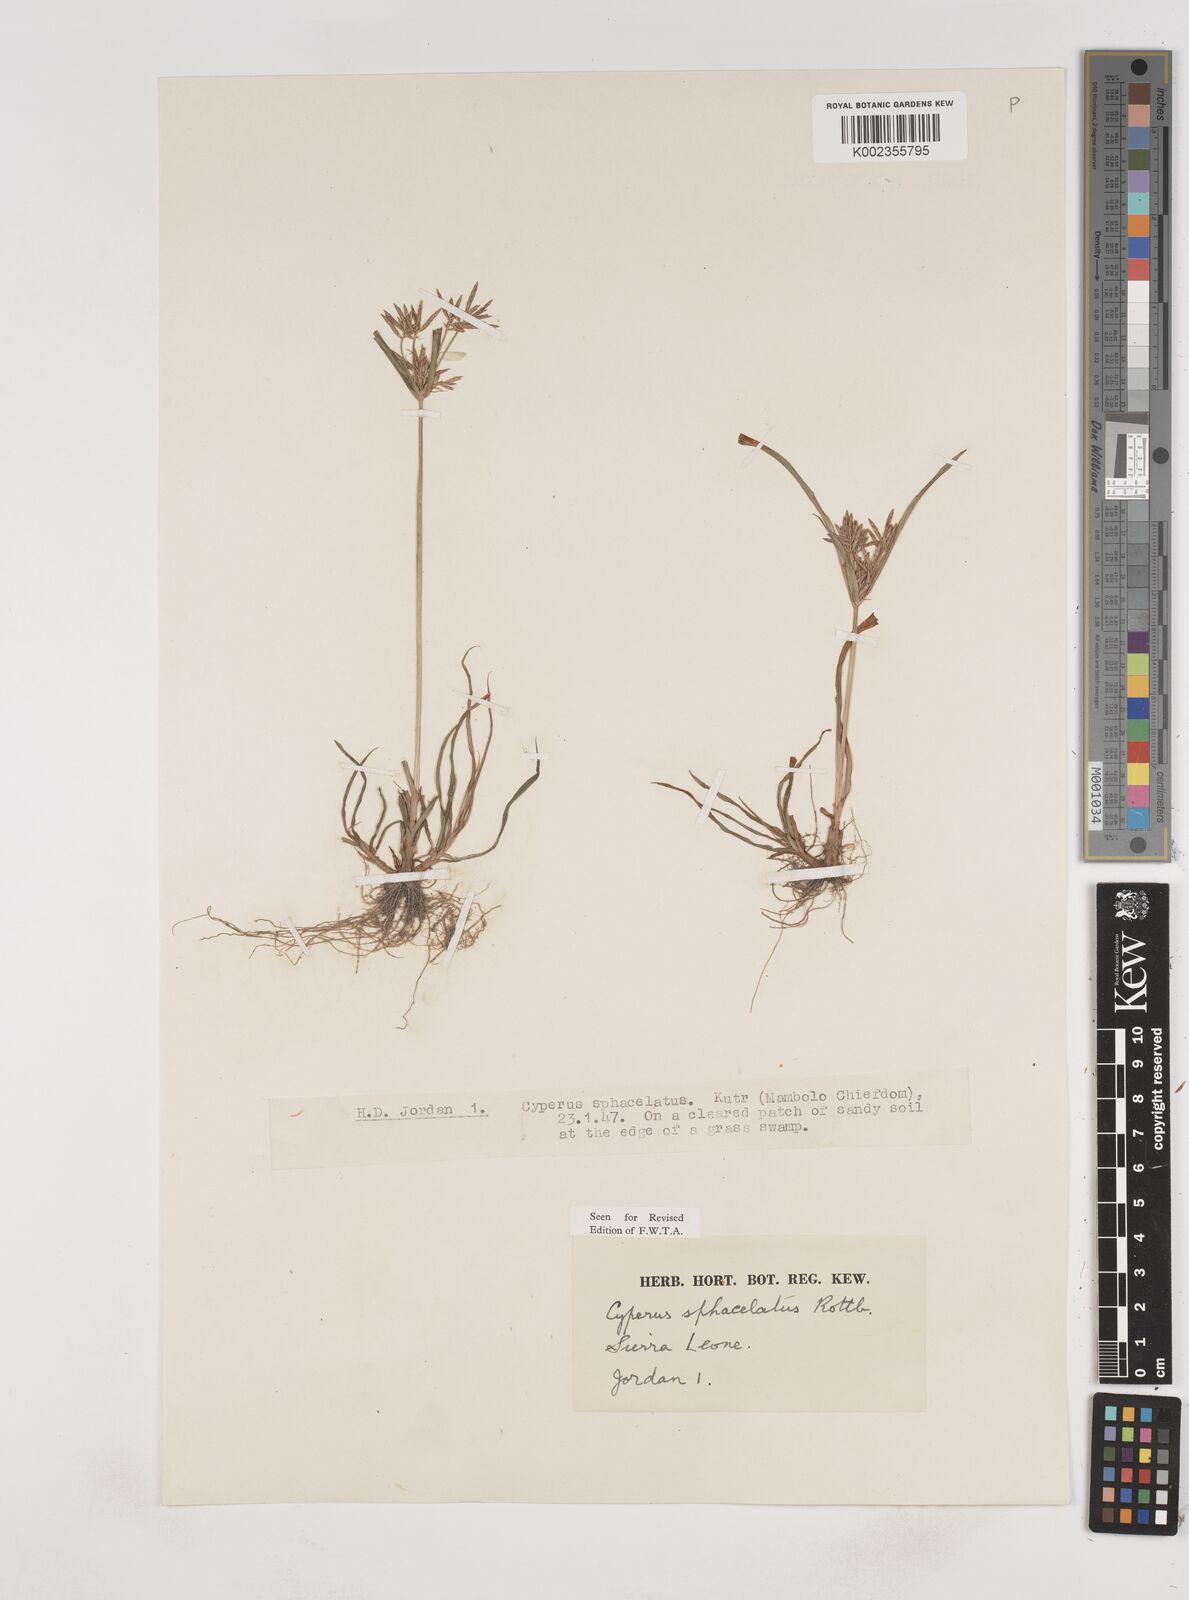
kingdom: Plantae
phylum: Tracheophyta
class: Liliopsida
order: Poales
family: Cyperaceae
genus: Cyperus
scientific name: Cyperus sphacelatus
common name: Roadside flatsedge
